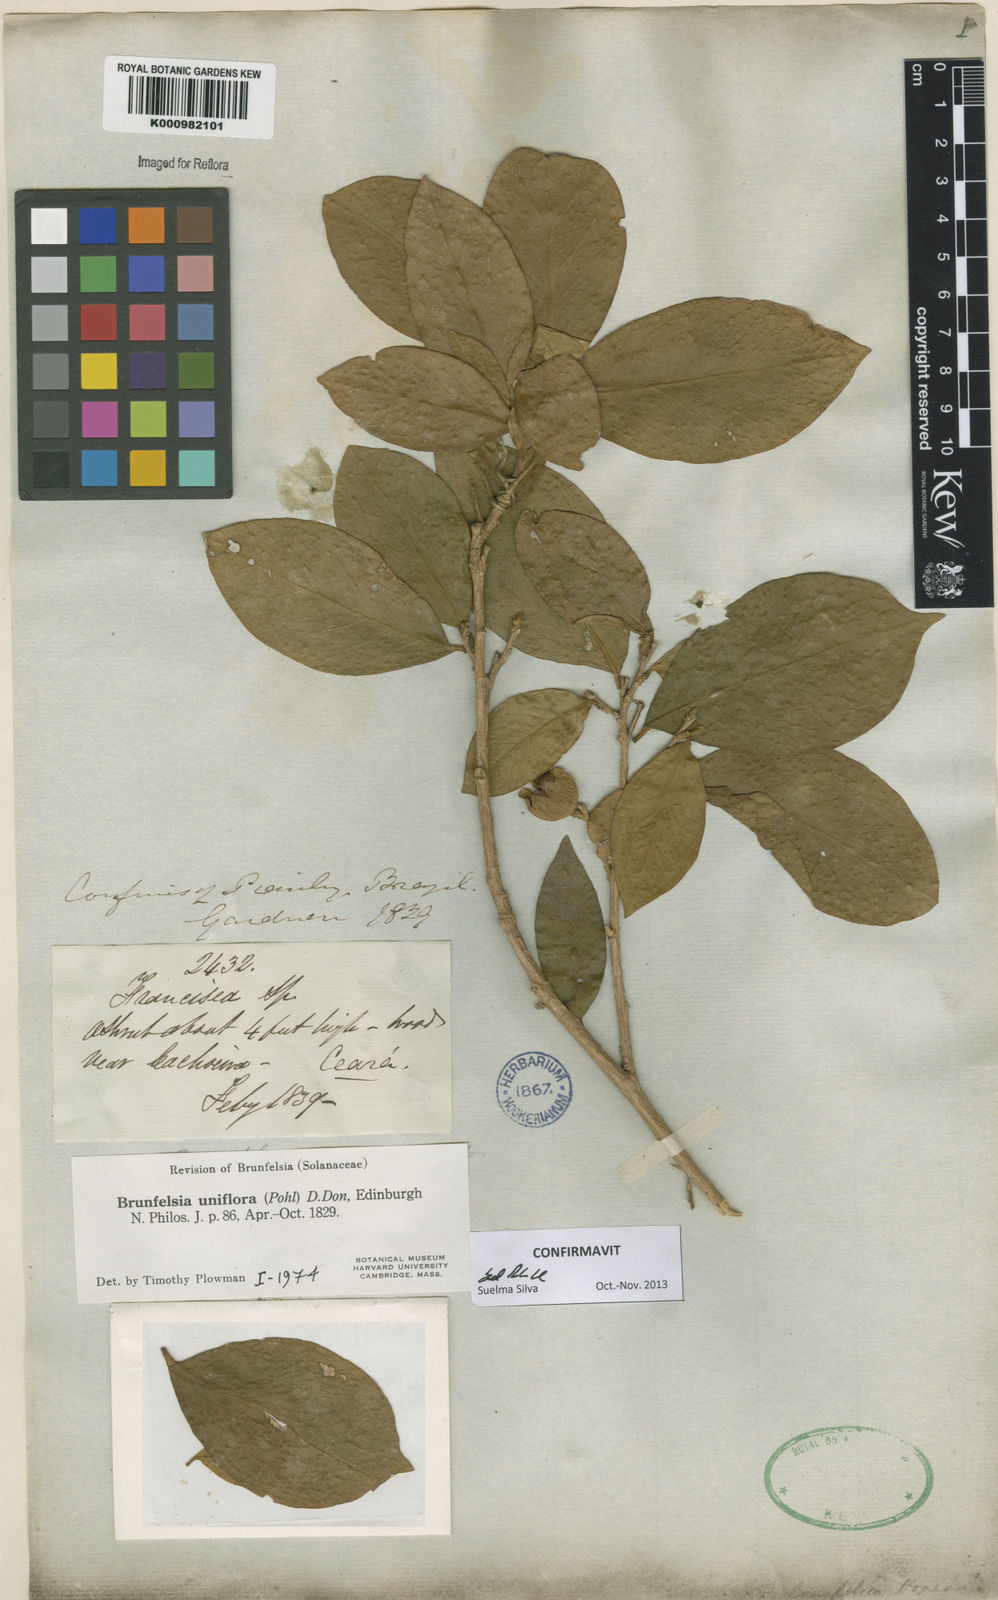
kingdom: Plantae
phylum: Tracheophyta
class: Magnoliopsida
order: Solanales
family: Solanaceae
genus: Brunfelsia
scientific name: Brunfelsia uniflora
